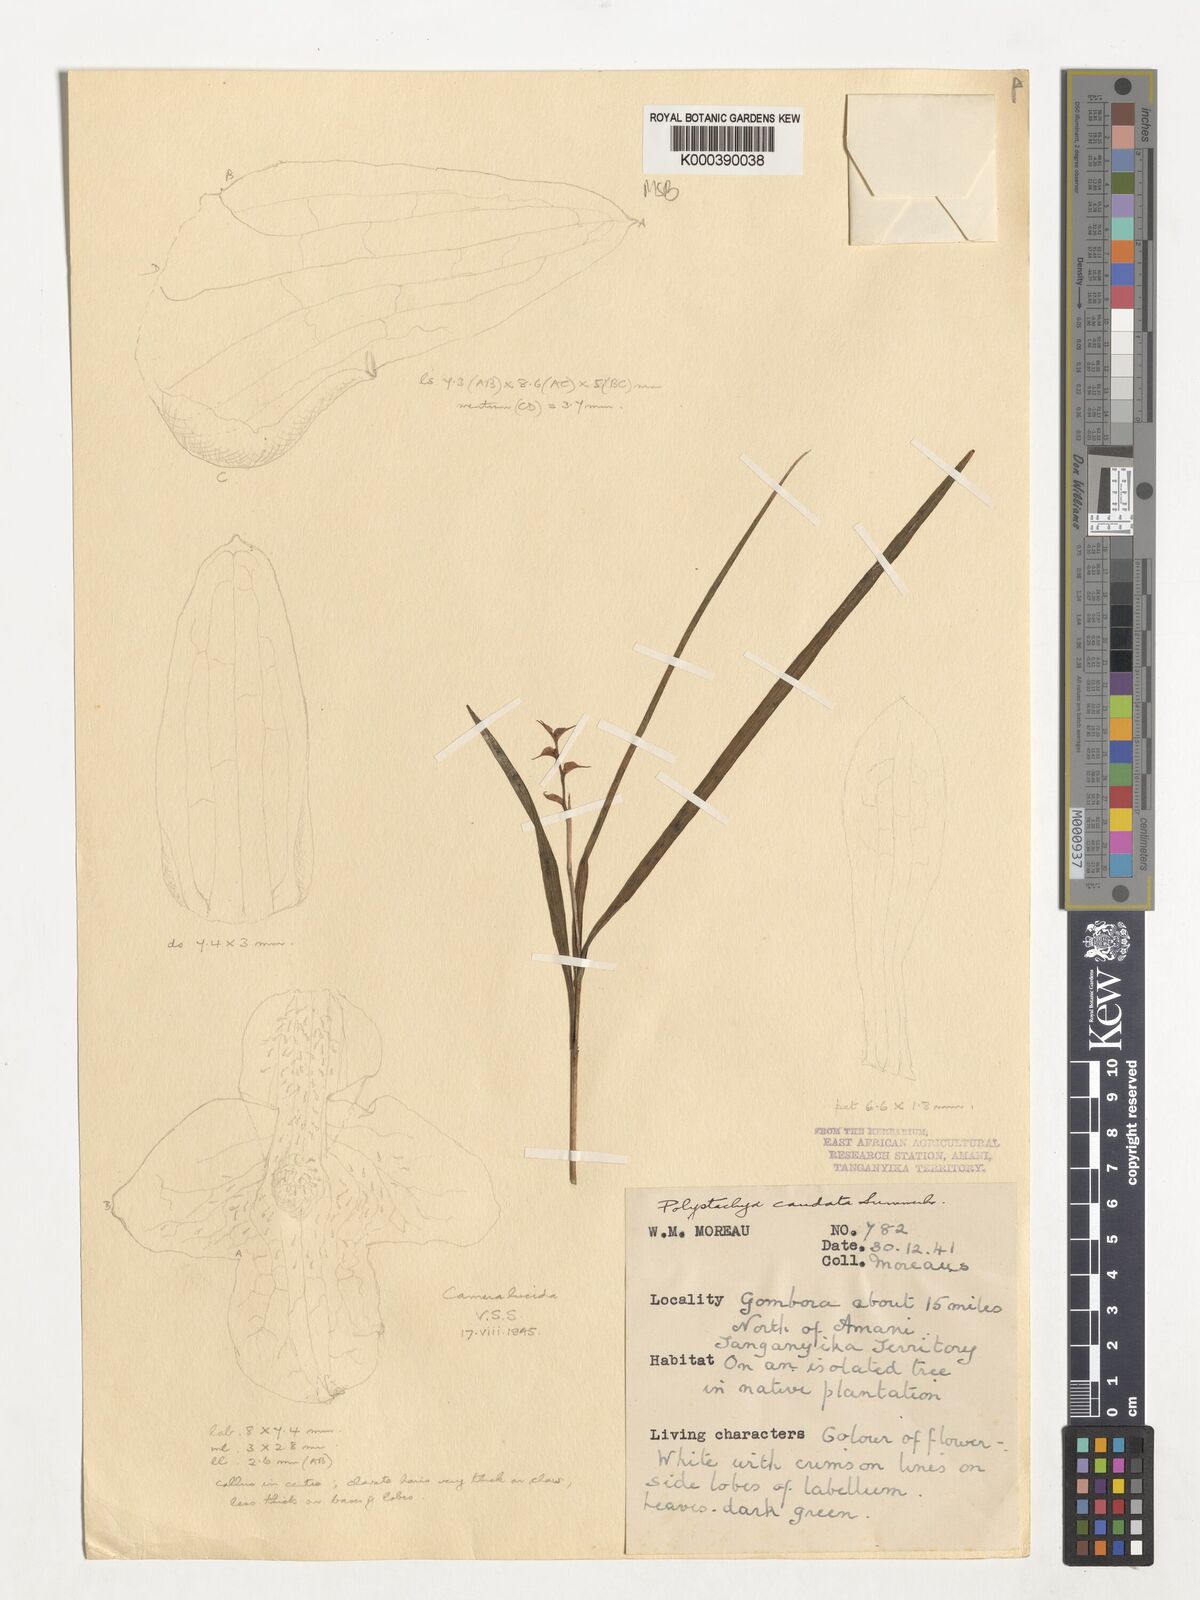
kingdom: Plantae
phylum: Tracheophyta
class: Liliopsida
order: Asparagales
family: Orchidaceae
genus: Polystachya
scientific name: Polystachya caudata
